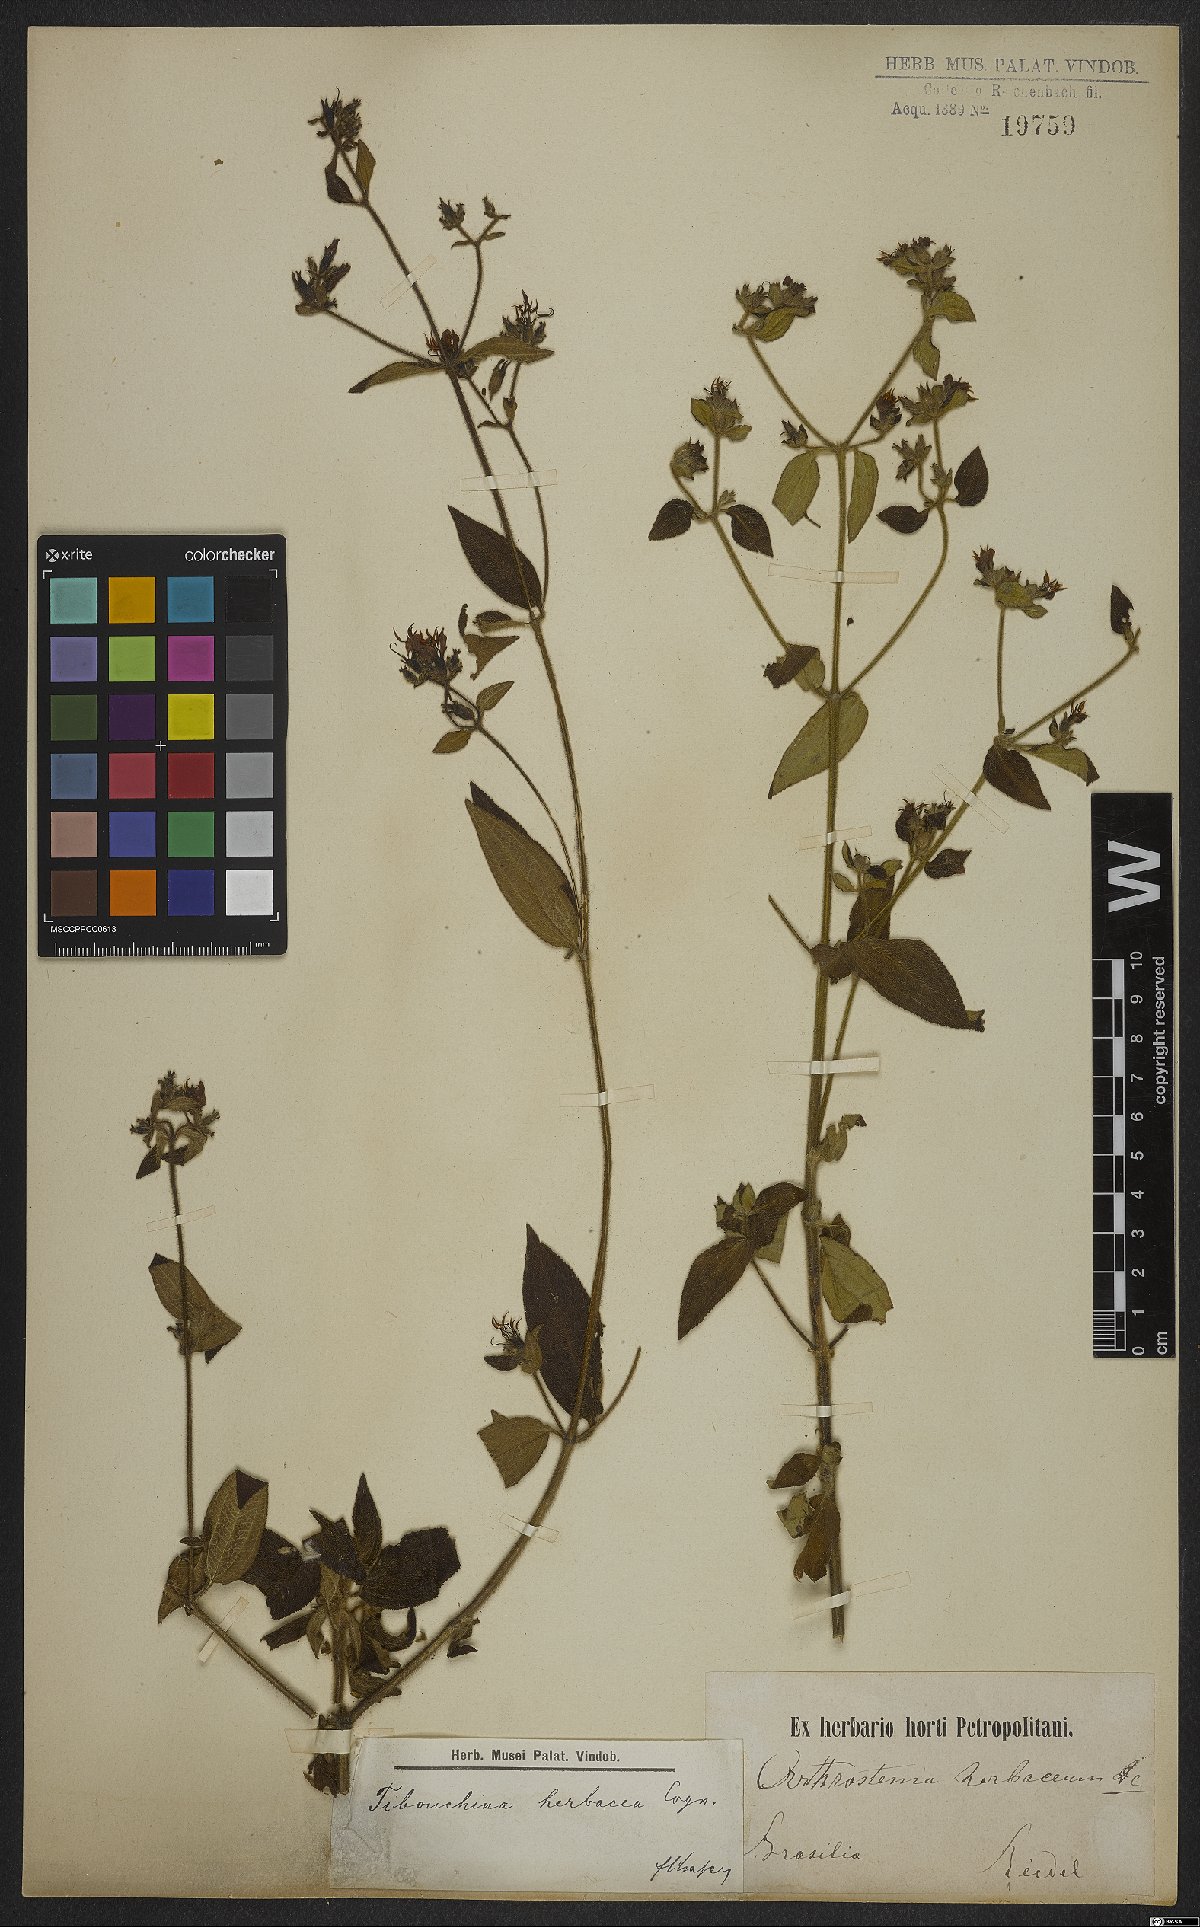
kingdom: Plantae
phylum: Tracheophyta
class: Magnoliopsida
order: Myrtales
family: Melastomataceae
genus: Chaetogastra
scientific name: Chaetogastra herbacea
